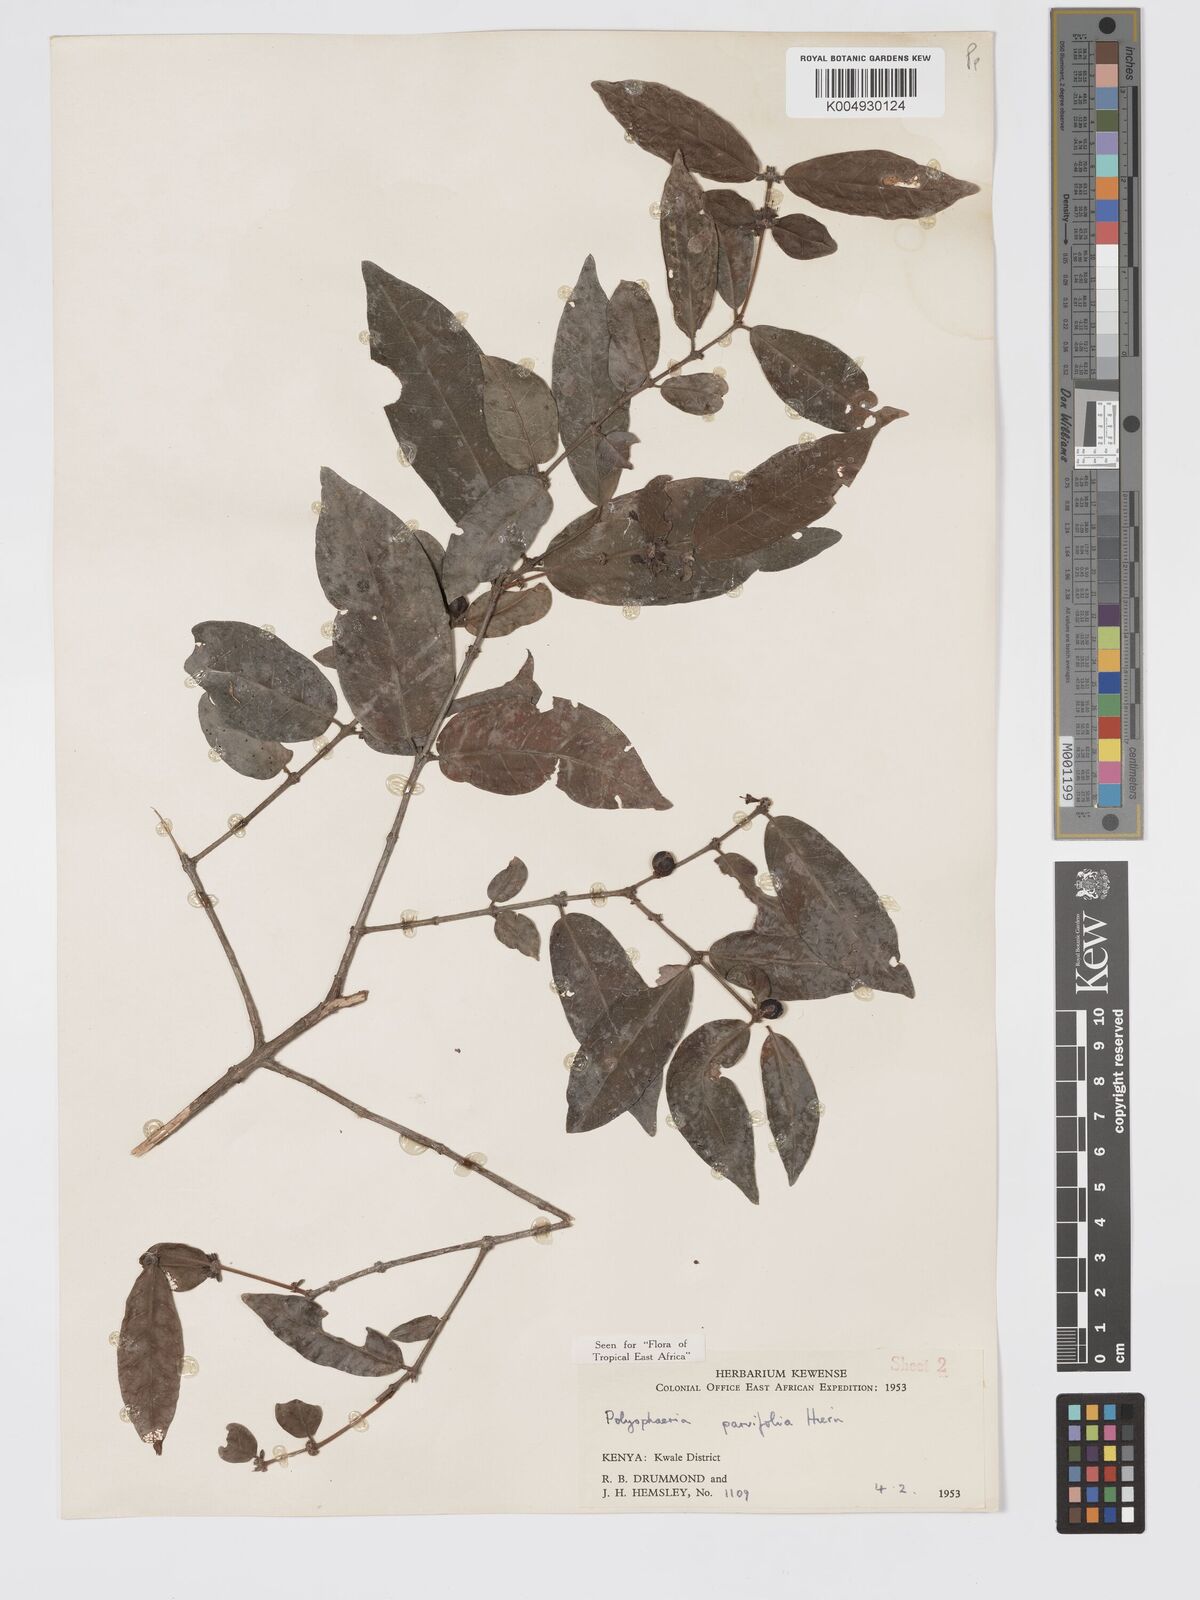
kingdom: Plantae
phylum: Tracheophyta
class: Magnoliopsida
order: Gentianales
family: Rubiaceae
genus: Polysphaeria
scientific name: Polysphaeria parvifolia
